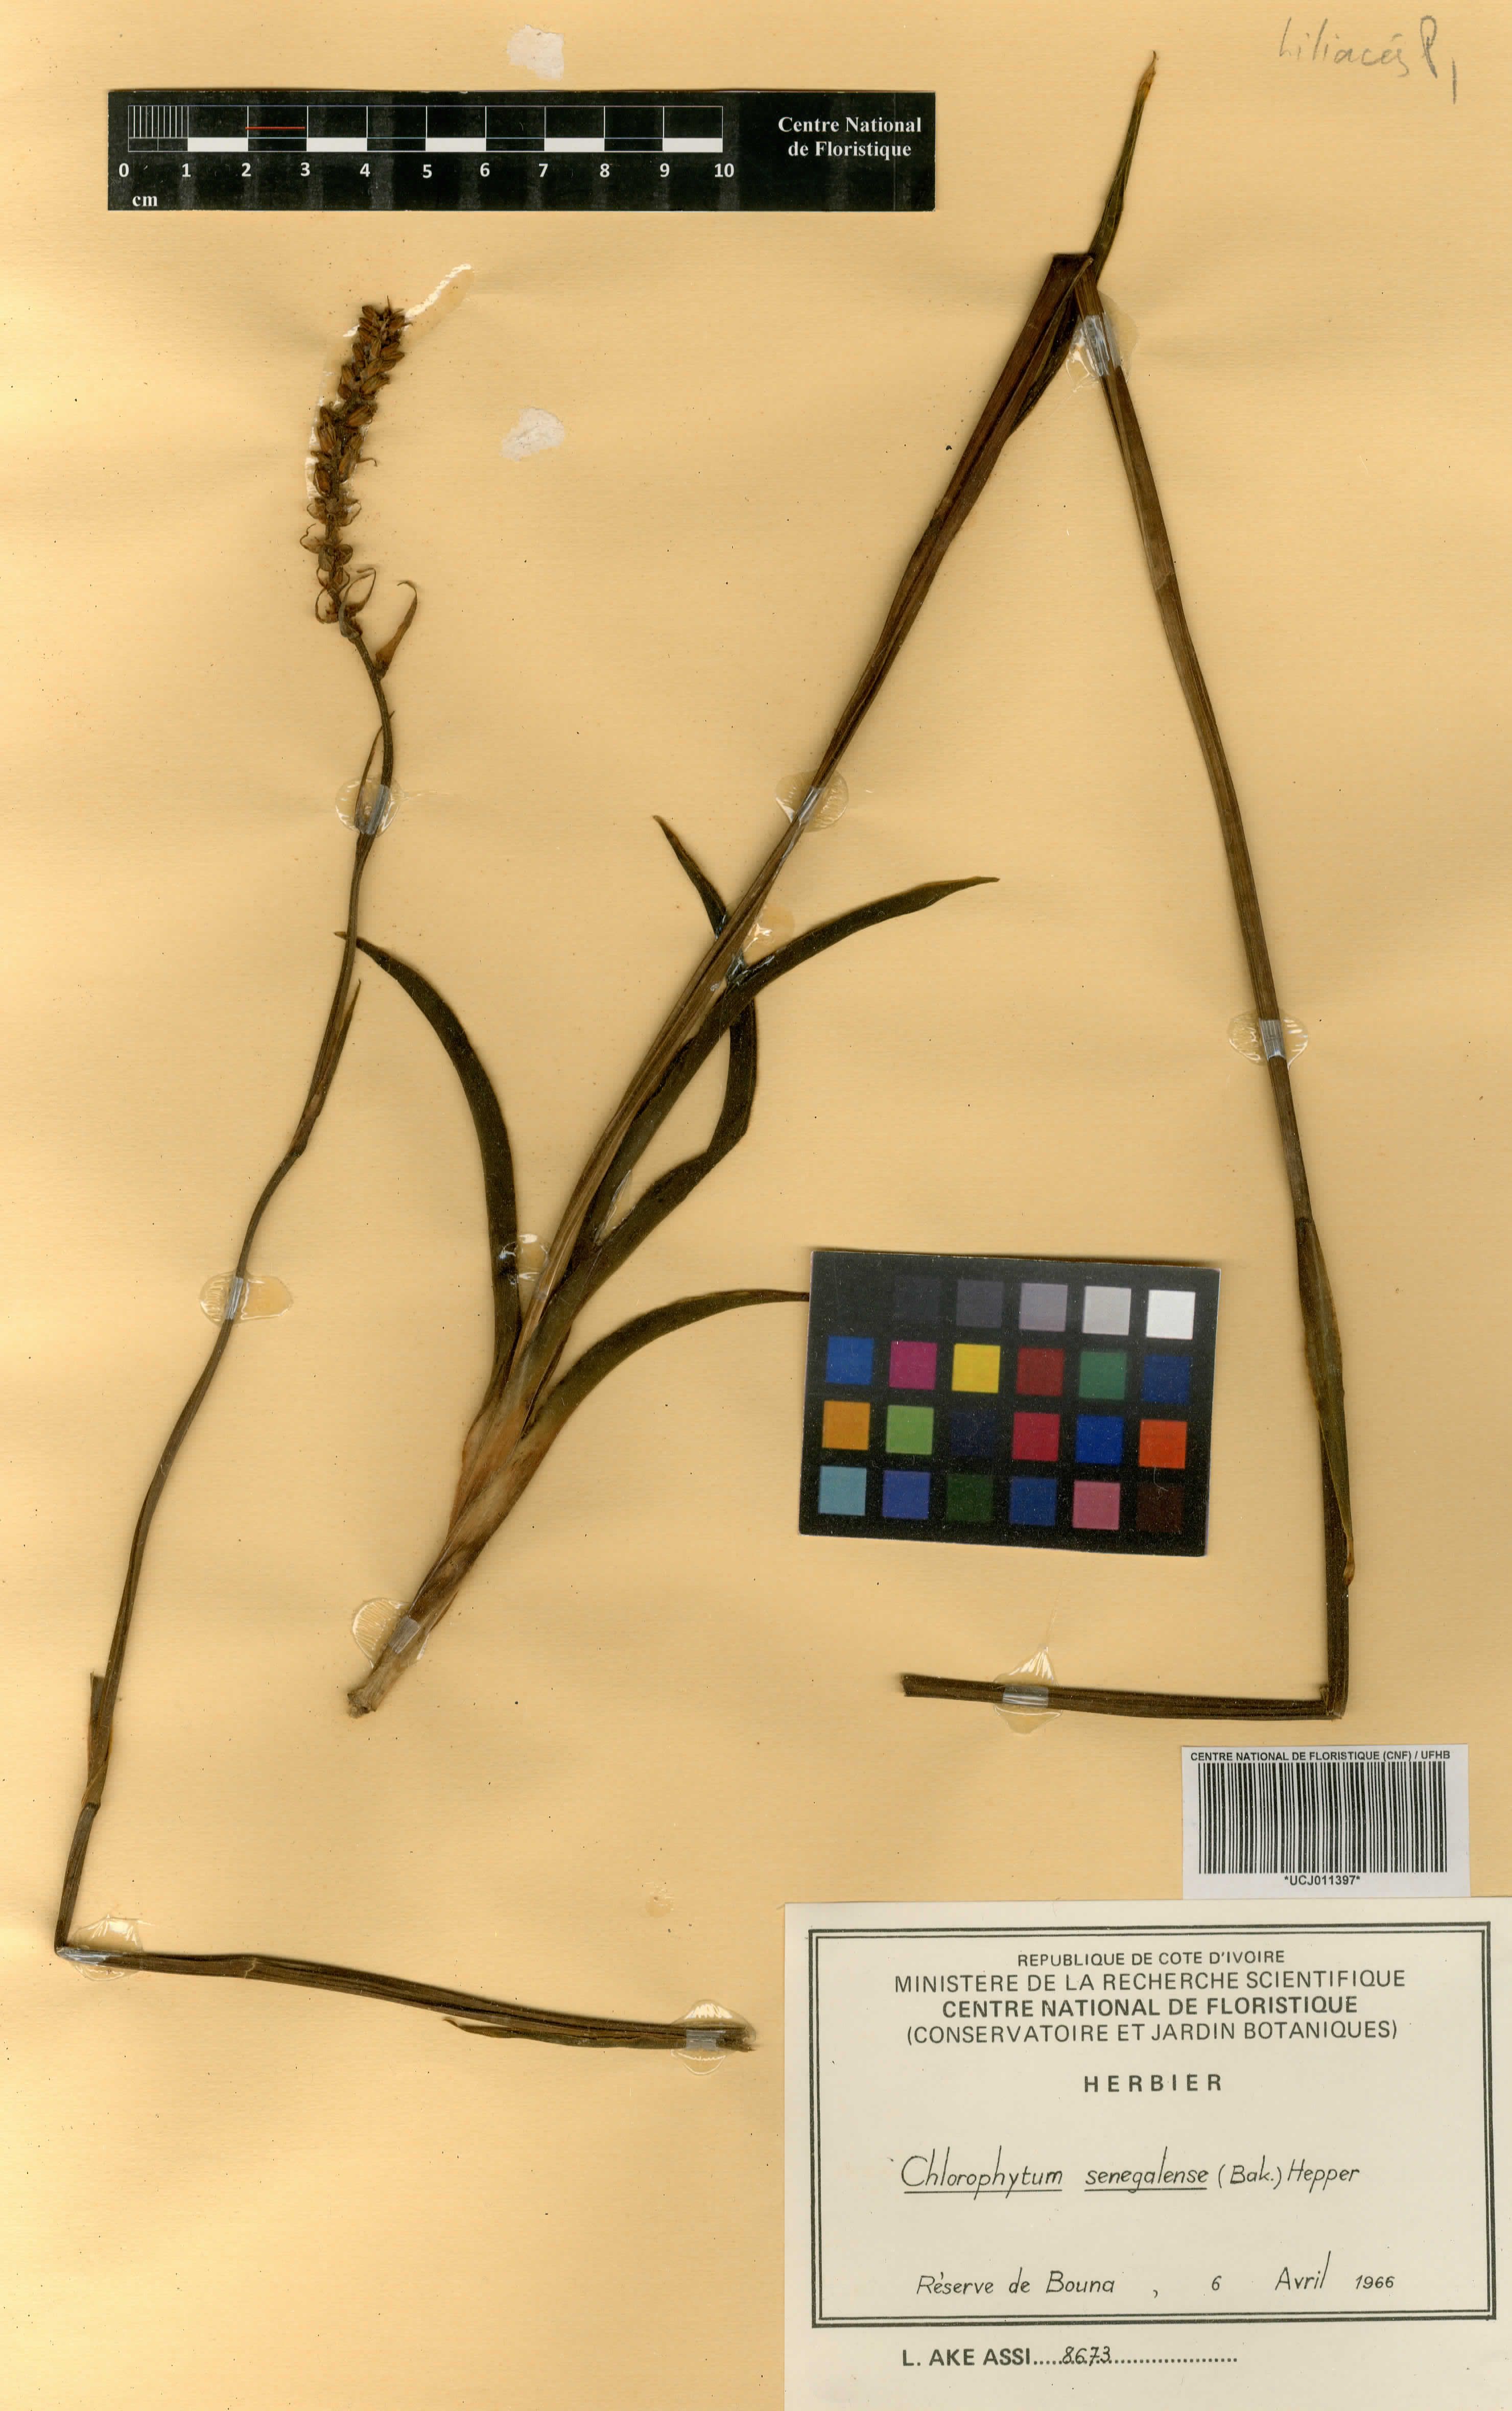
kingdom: Plantae
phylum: Tracheophyta
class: Liliopsida
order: Asparagales
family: Asparagaceae
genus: Chlorophytum
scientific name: Chlorophytum senegalense
